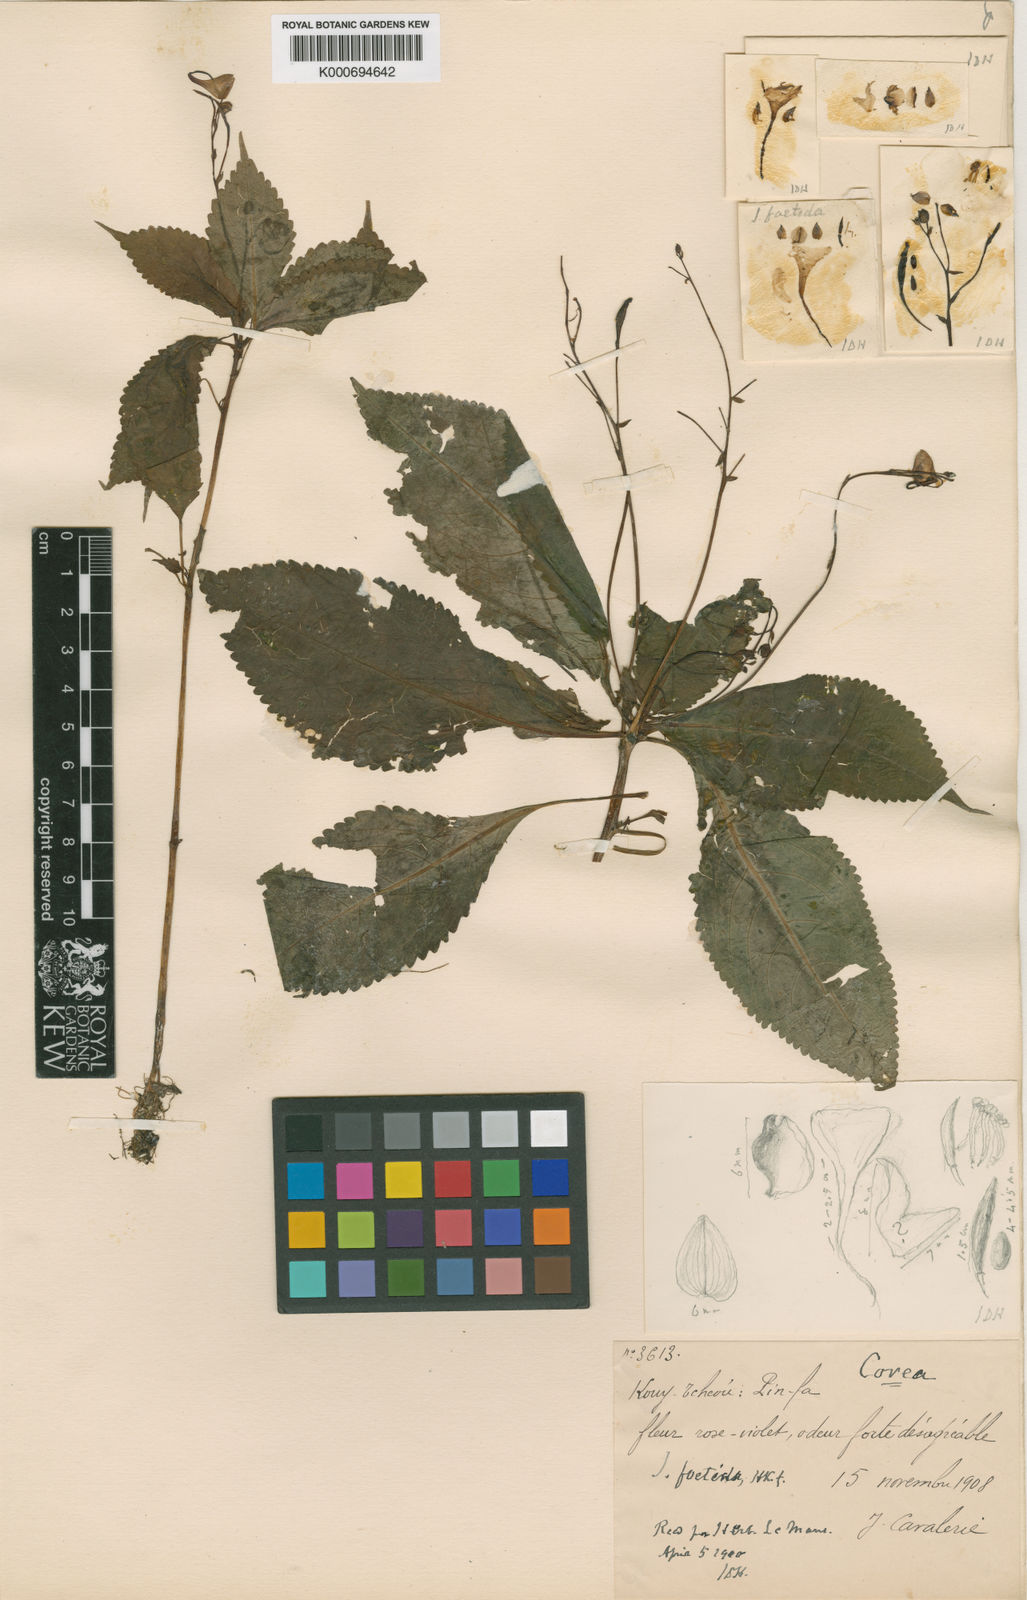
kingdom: Plantae
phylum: Tracheophyta
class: Magnoliopsida
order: Ericales
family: Balsaminaceae
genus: Impatiens
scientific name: Impatiens
